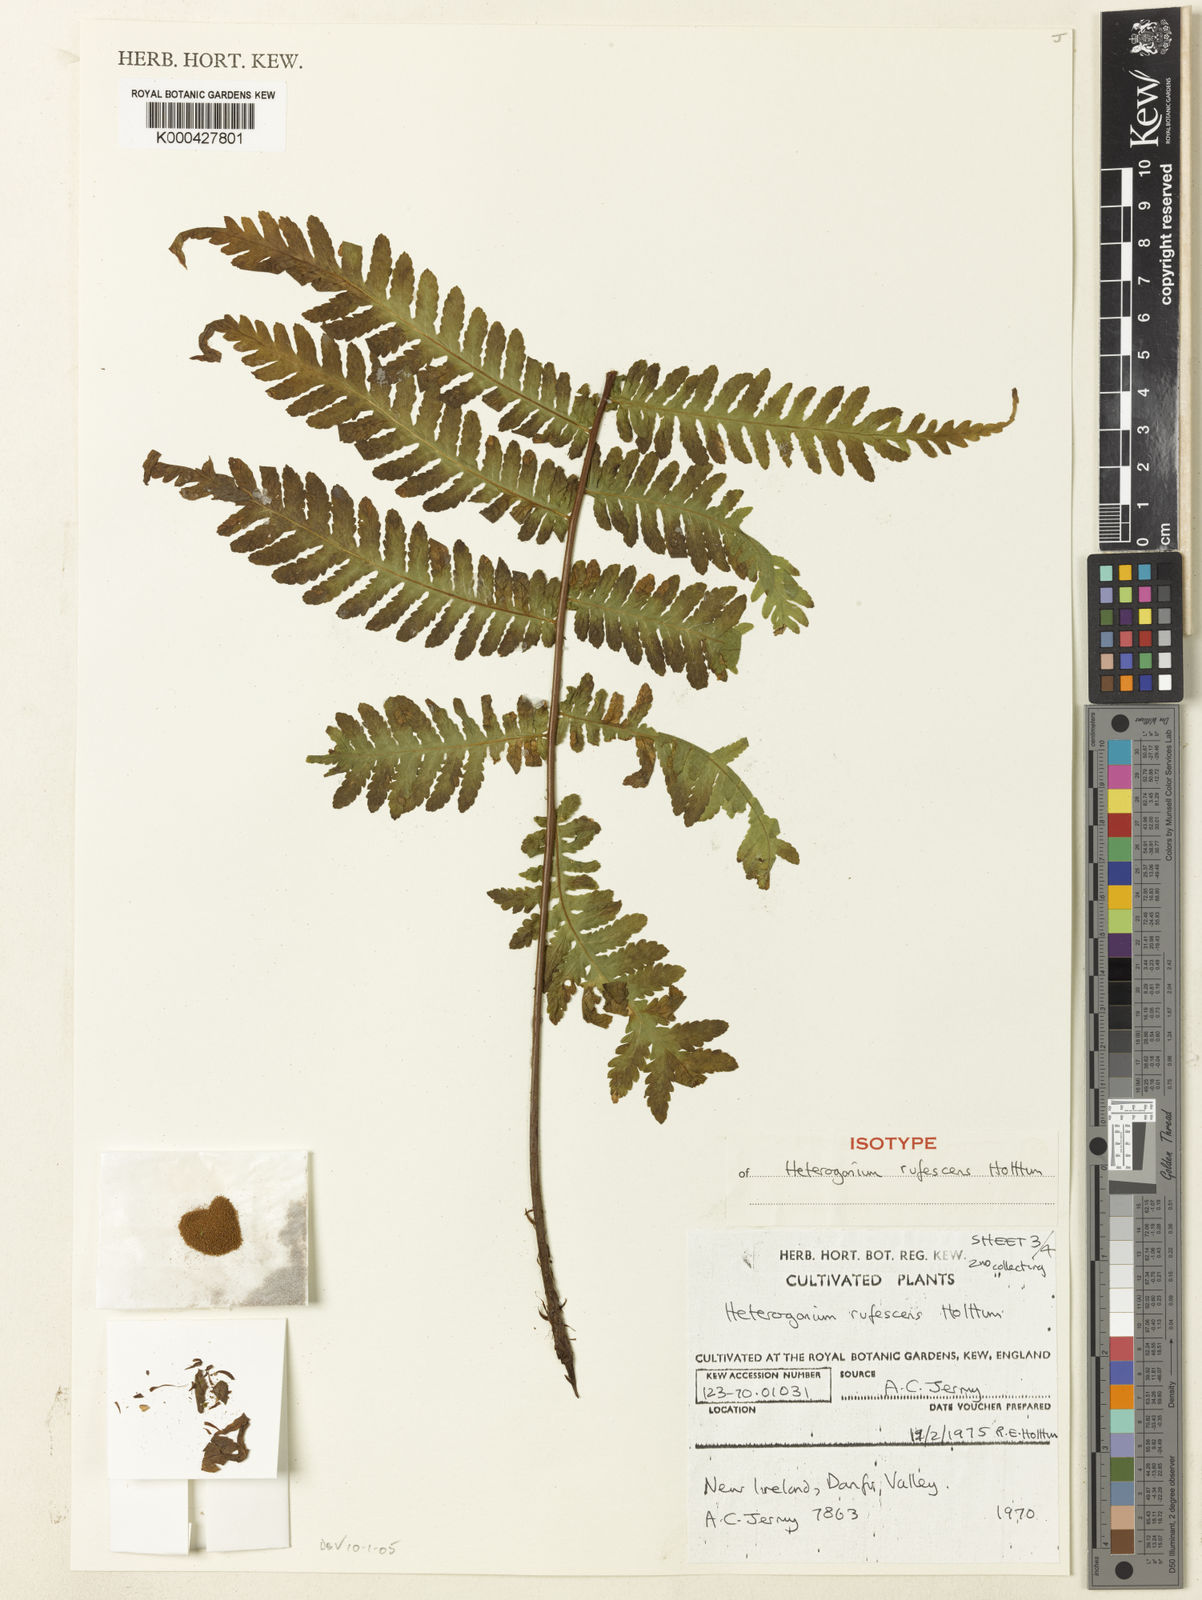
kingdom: Plantae
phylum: Tracheophyta
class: Polypodiopsida
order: Polypodiales
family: Tectariaceae
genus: Tectaria
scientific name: Tectaria jermyi
